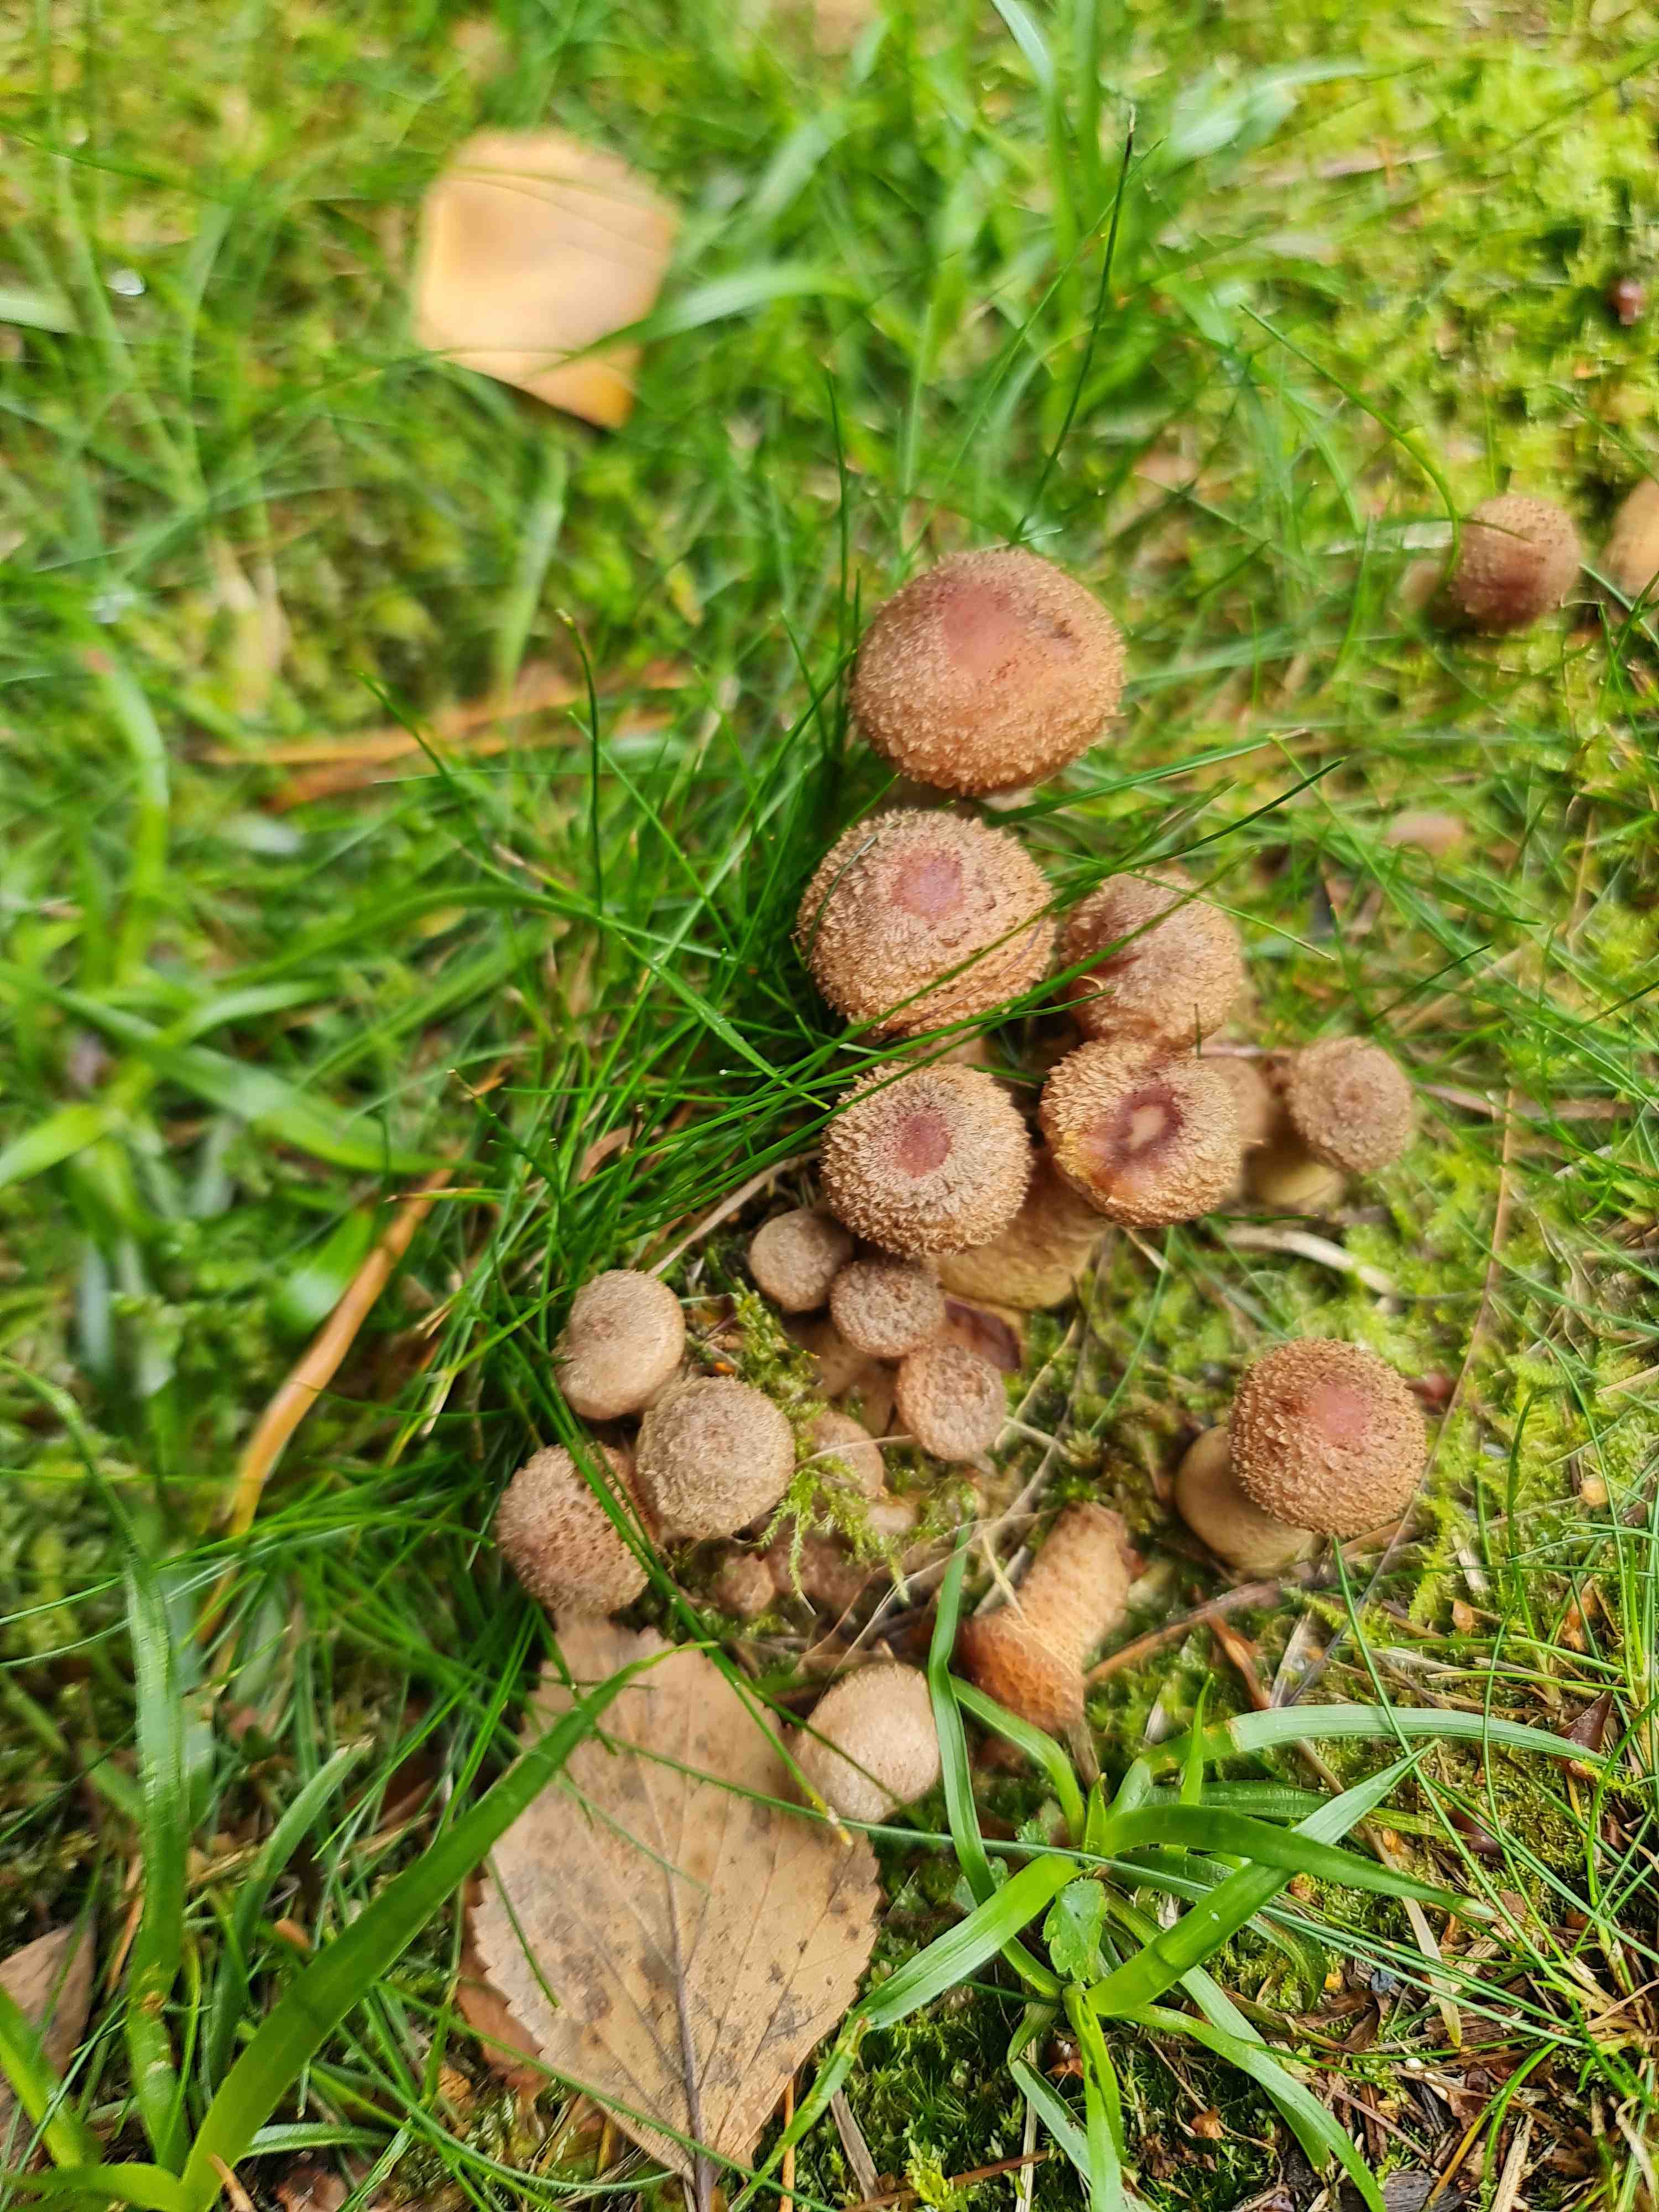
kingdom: Fungi
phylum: Basidiomycota
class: Agaricomycetes
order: Agaricales
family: Physalacriaceae
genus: Armillaria
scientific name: Armillaria
